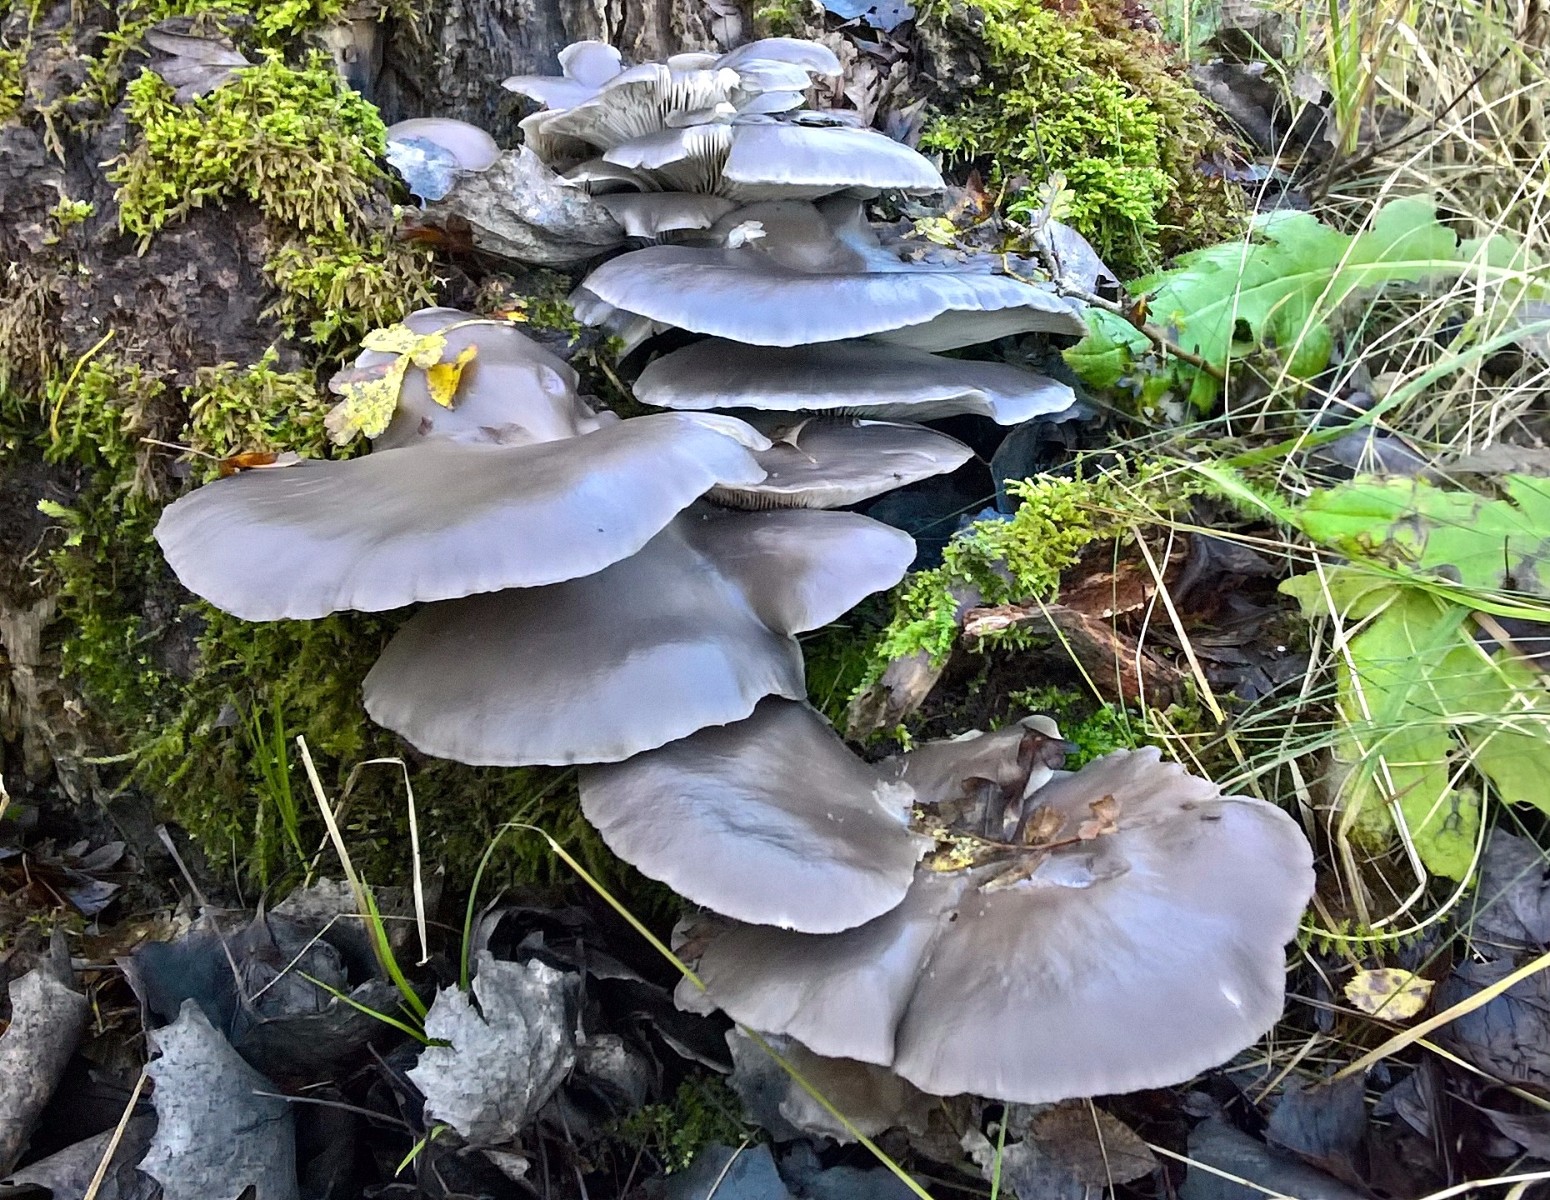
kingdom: Fungi
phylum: Basidiomycota
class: Agaricomycetes
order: Agaricales
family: Pleurotaceae
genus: Pleurotus
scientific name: Pleurotus ostreatus
